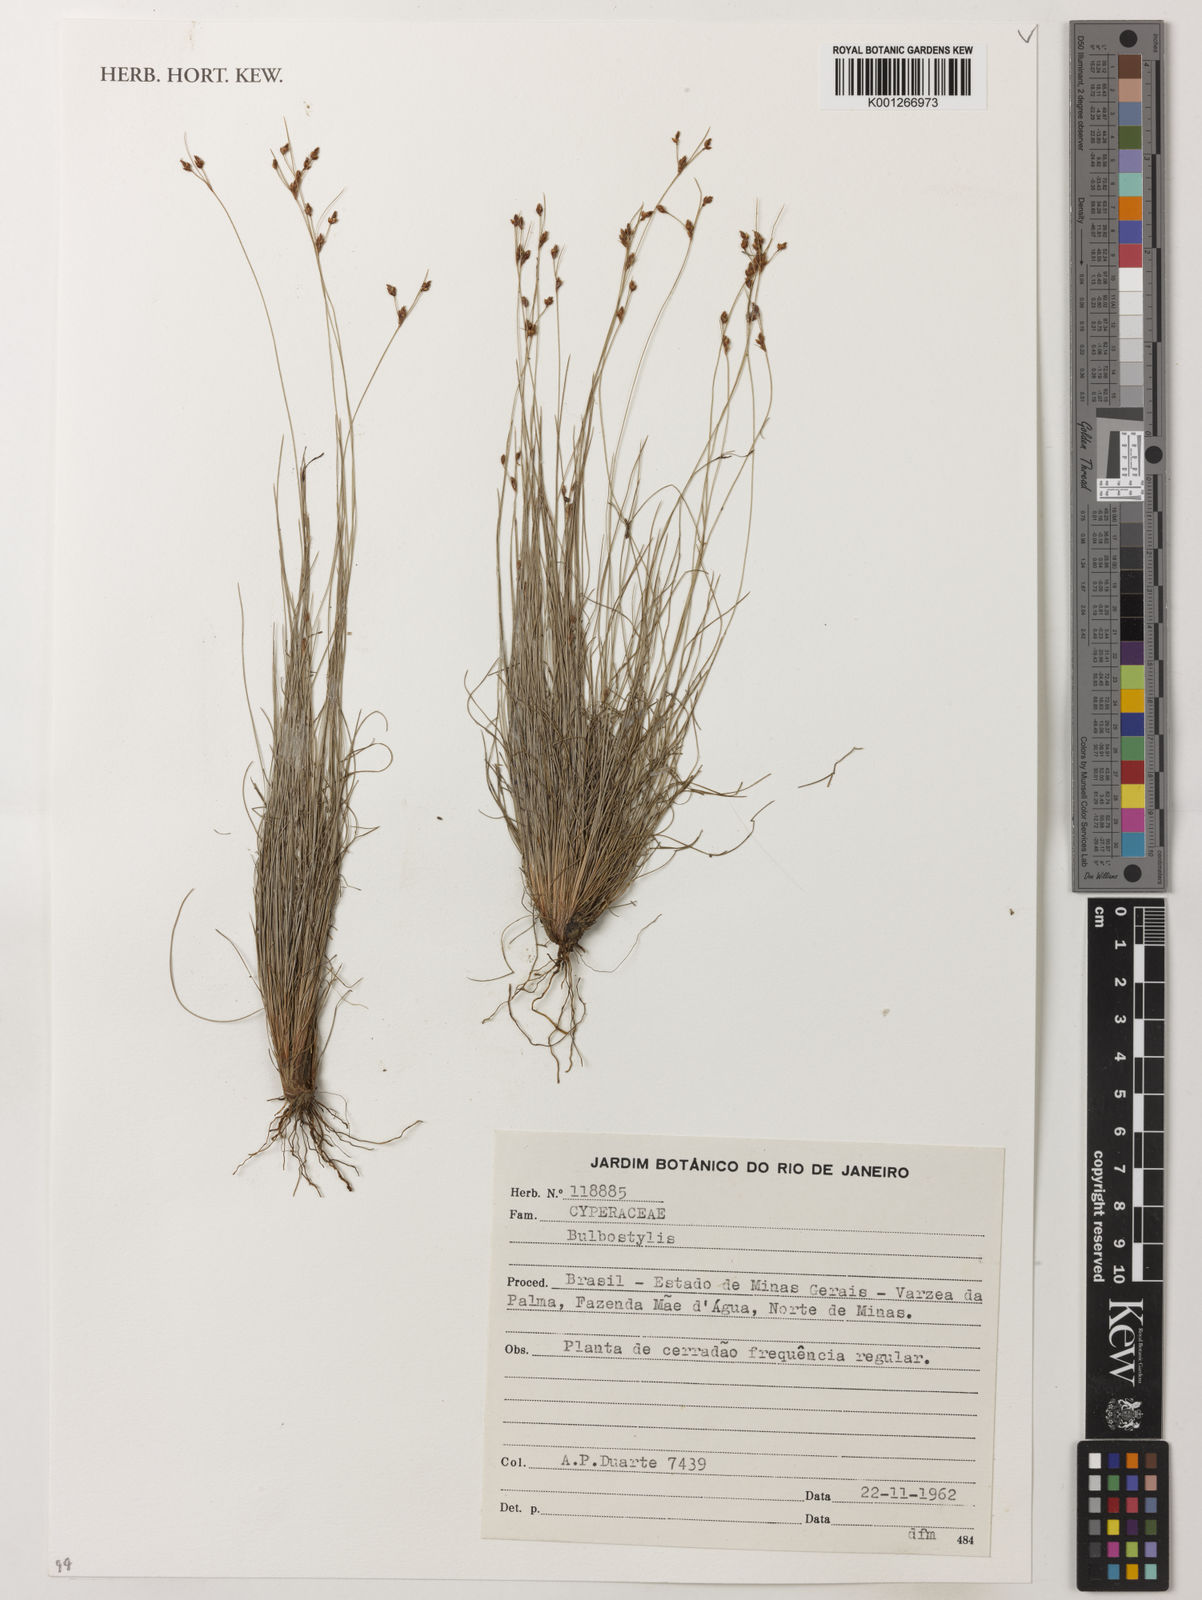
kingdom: Plantae
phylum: Tracheophyta
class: Liliopsida
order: Poales
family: Cyperaceae
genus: Bulbostylis
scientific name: Bulbostylis
